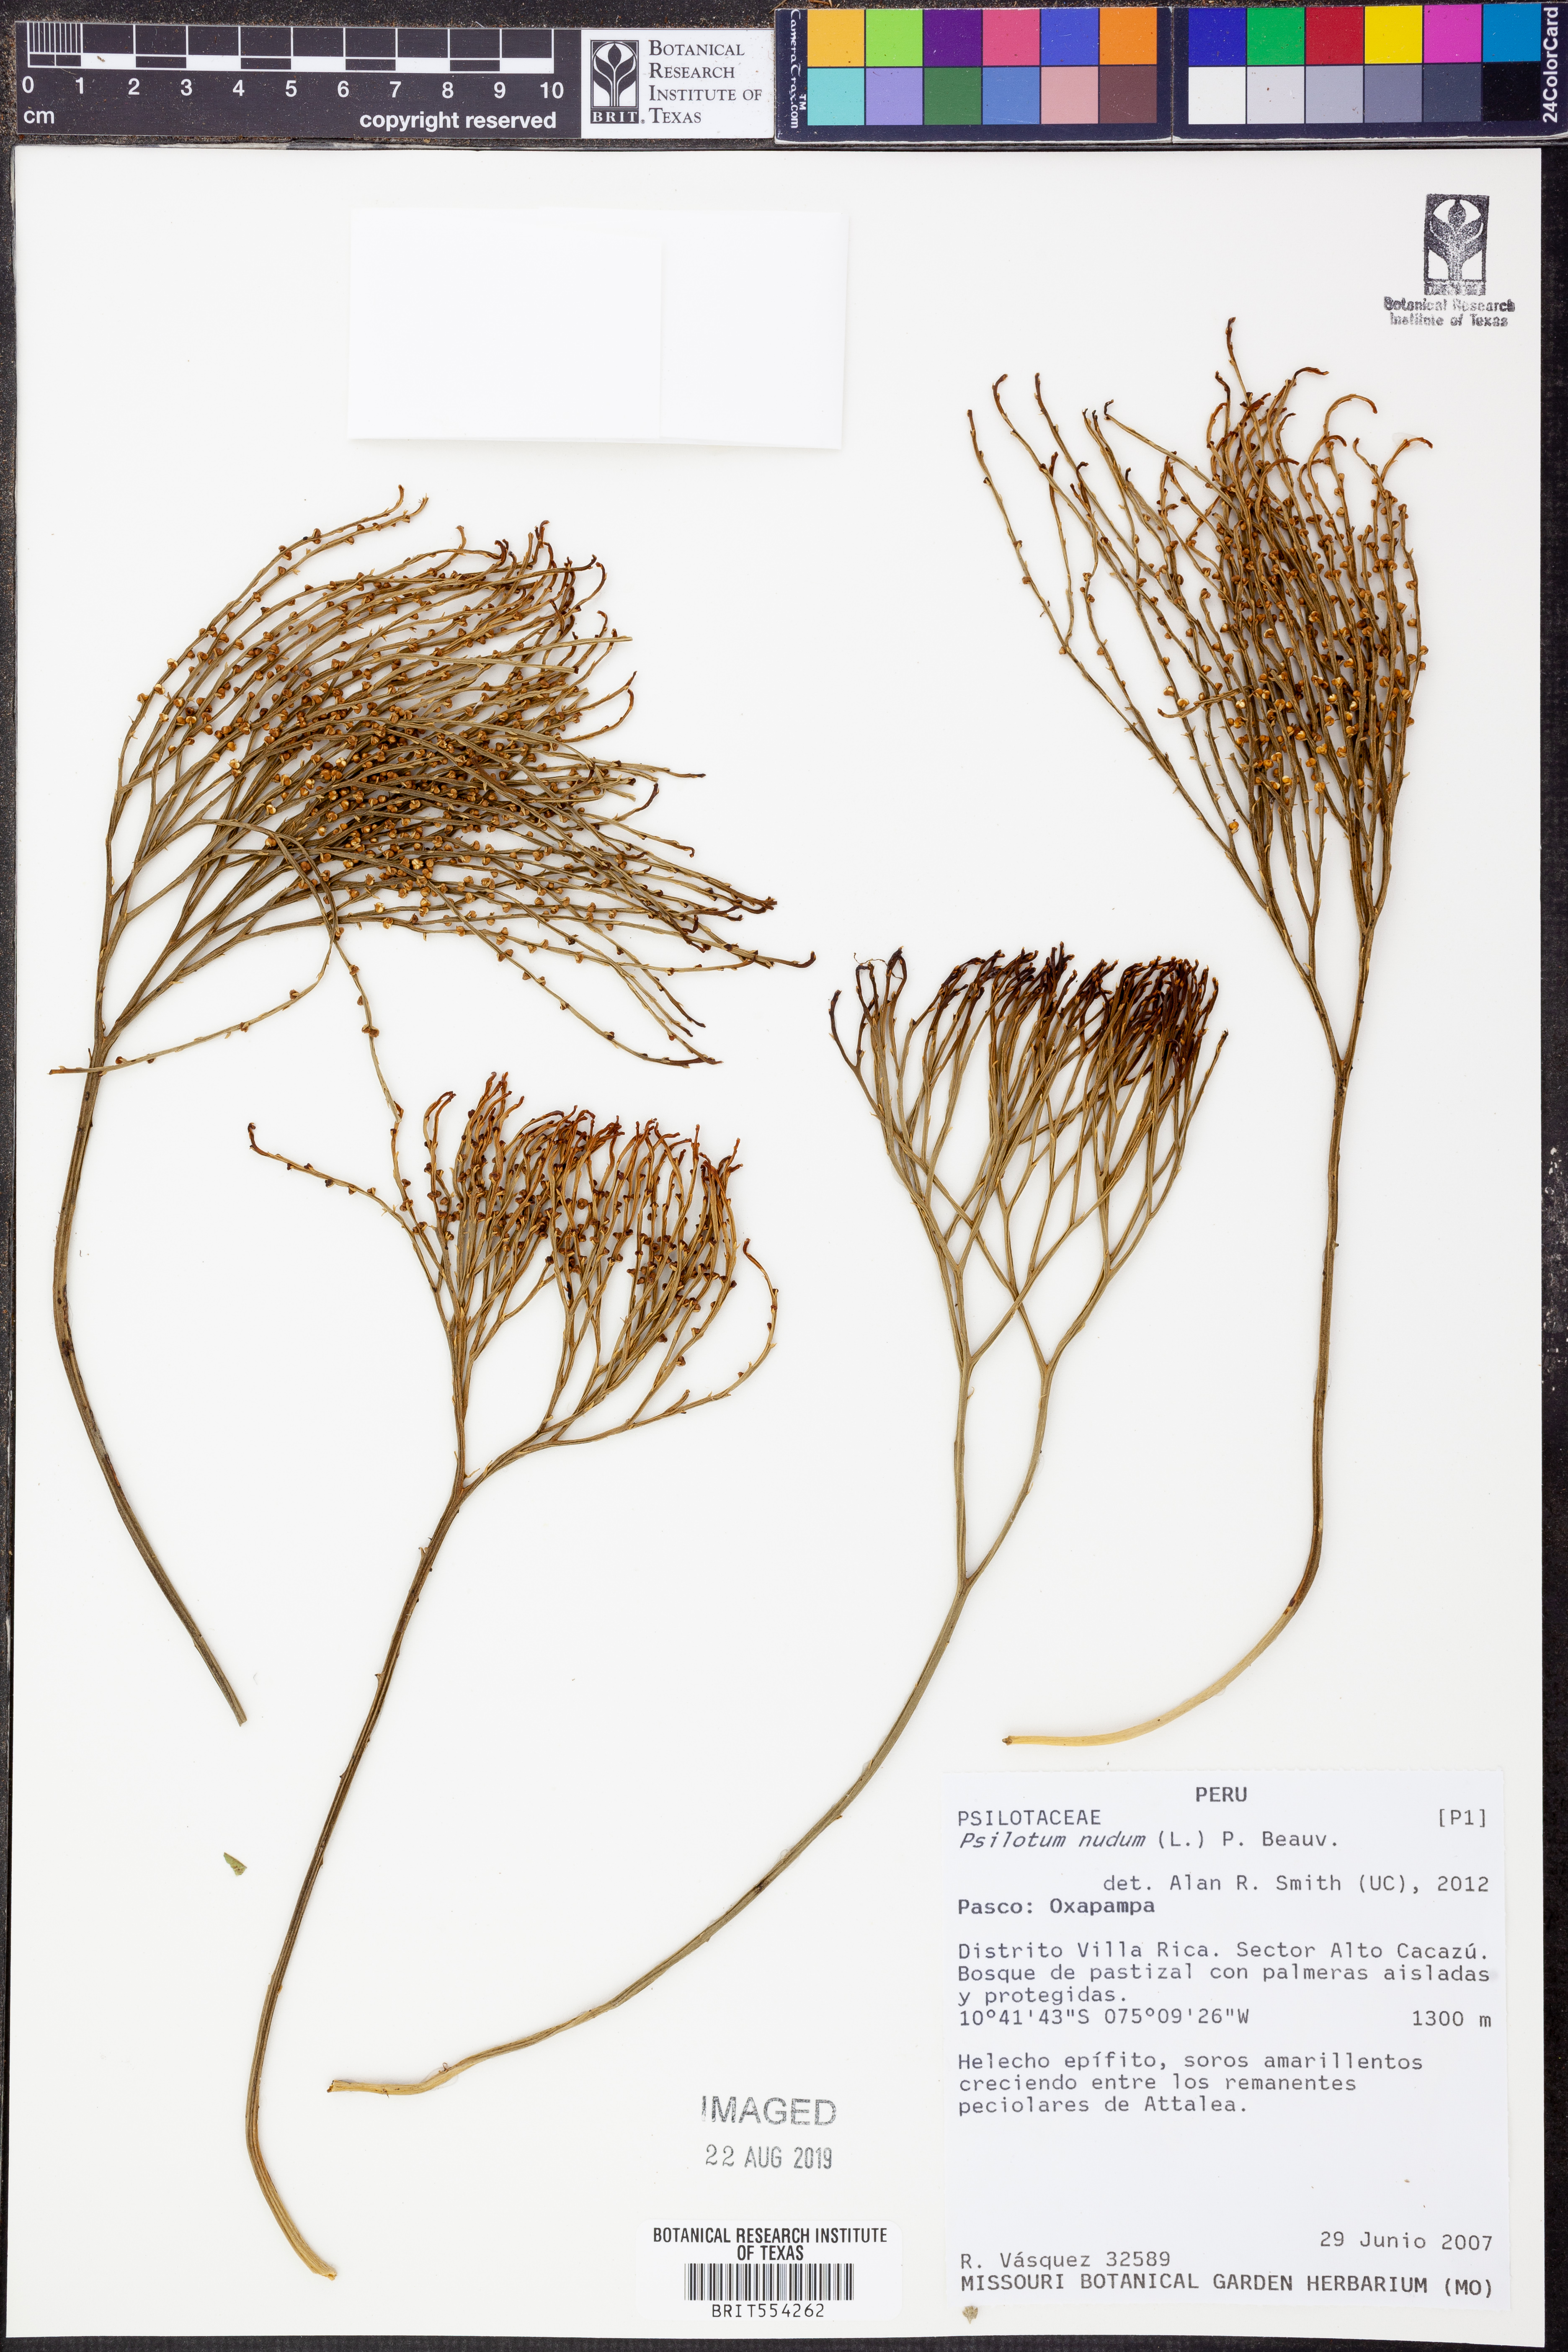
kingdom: Plantae
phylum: Tracheophyta
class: Polypodiopsida
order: Psilotales
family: Psilotaceae
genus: Psilotum
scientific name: Psilotum nudum
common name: Skeleton fork fern
